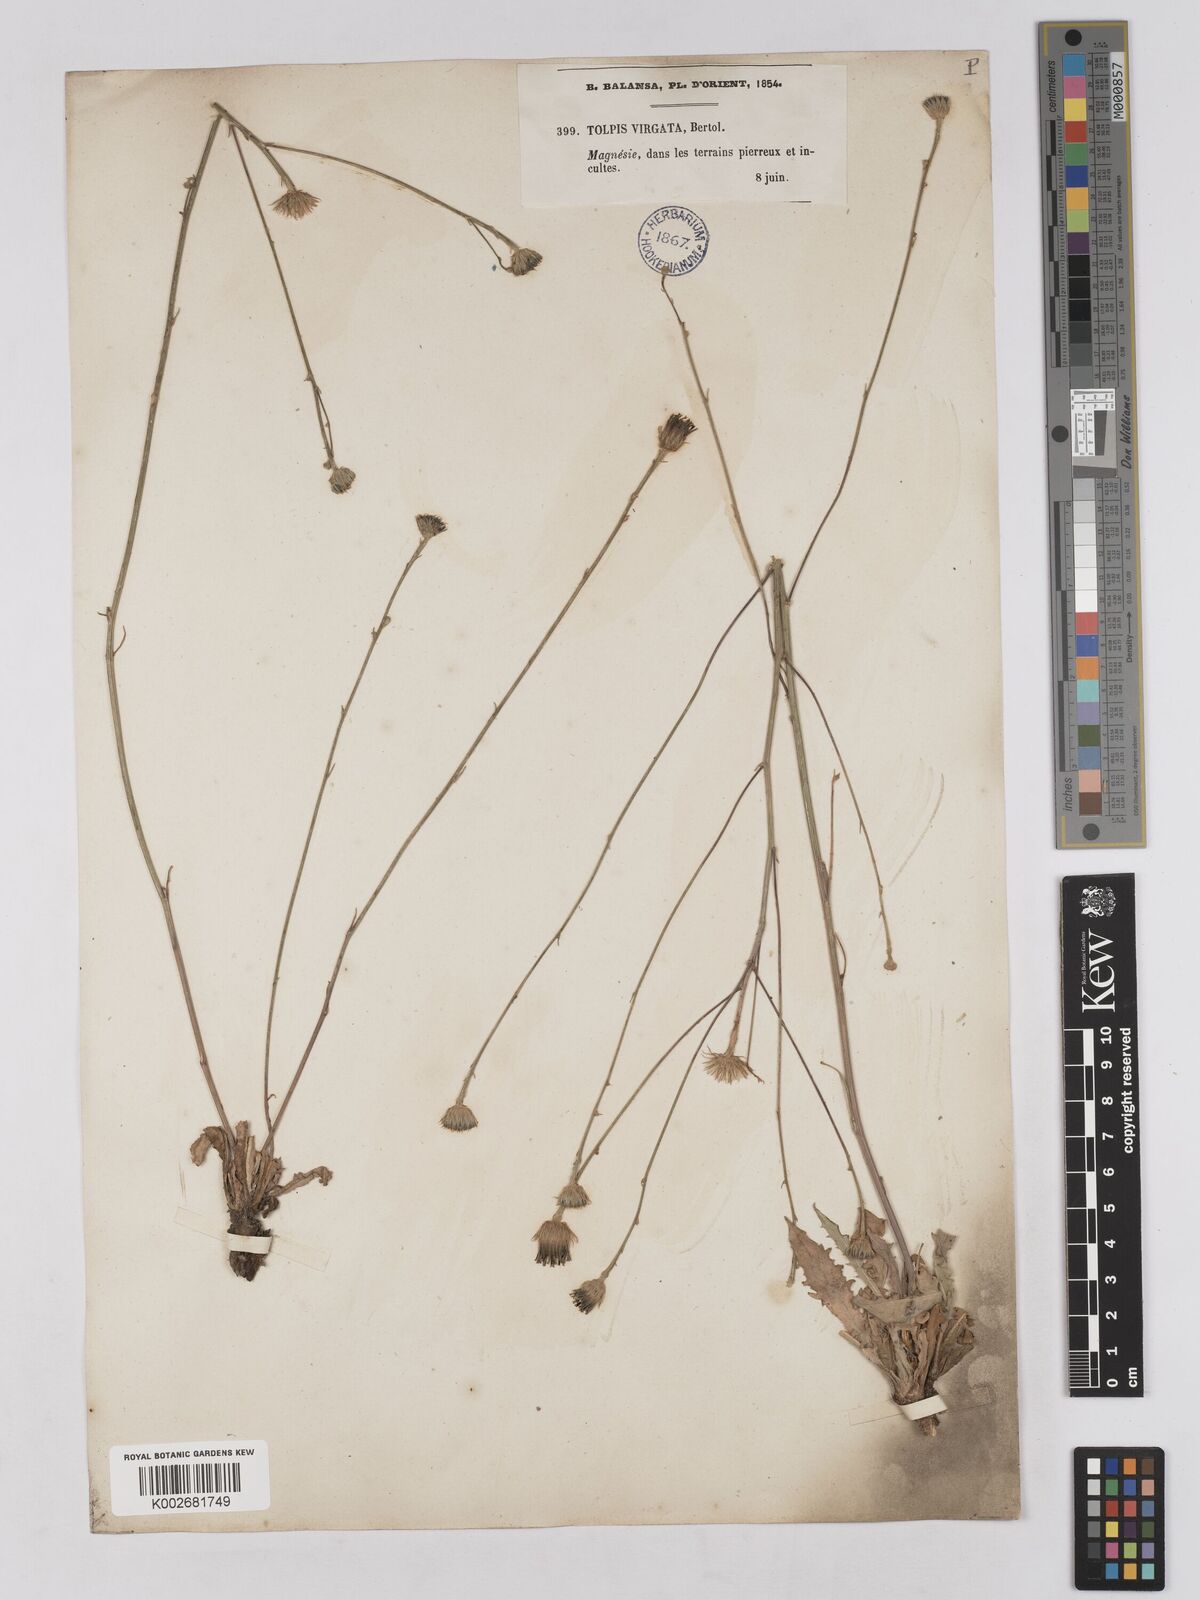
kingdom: Plantae
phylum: Tracheophyta
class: Magnoliopsida
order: Asterales
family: Asteraceae
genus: Tolpis
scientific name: Tolpis virgata
